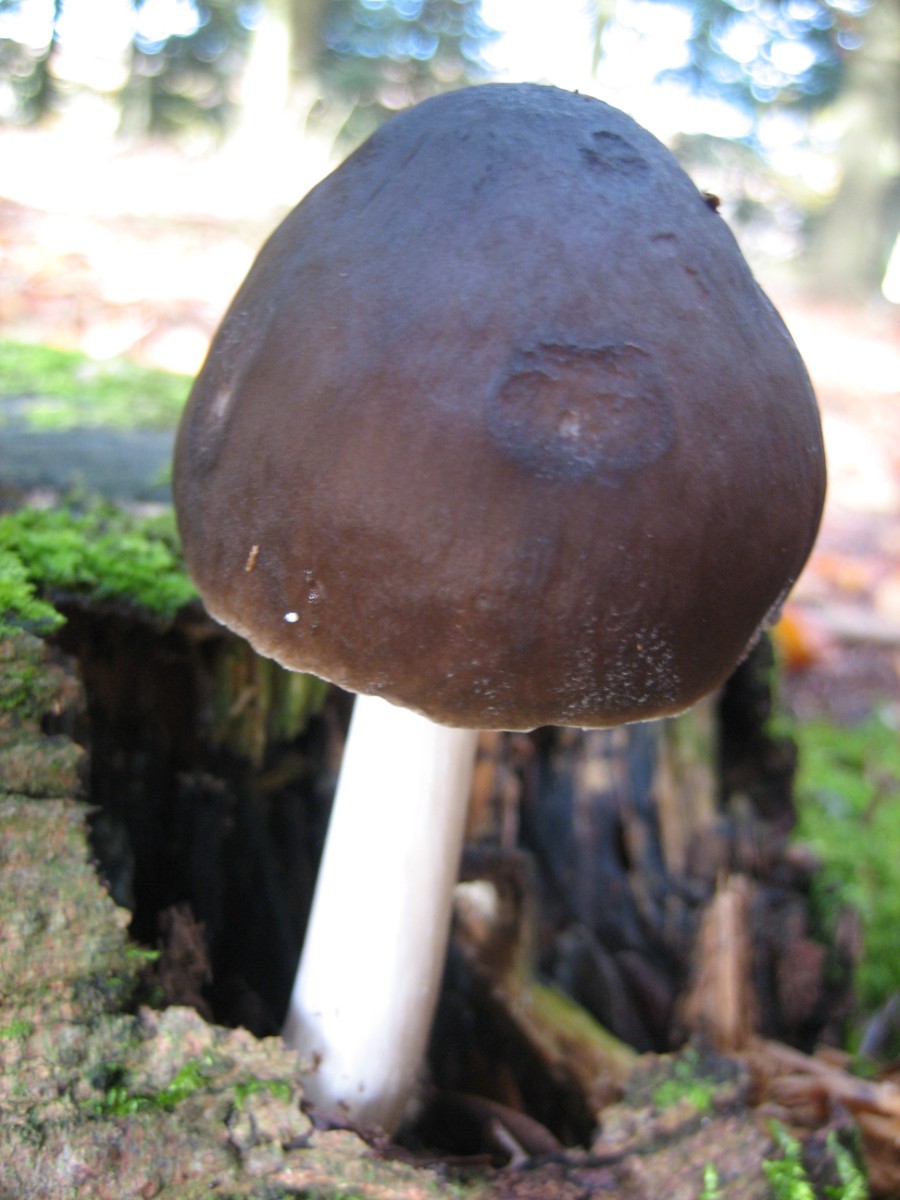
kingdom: Fungi
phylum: Basidiomycota
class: Agaricomycetes
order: Agaricales
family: Pluteaceae
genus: Pluteus
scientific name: Pluteus cervinus
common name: sodfarvet skærmhat
